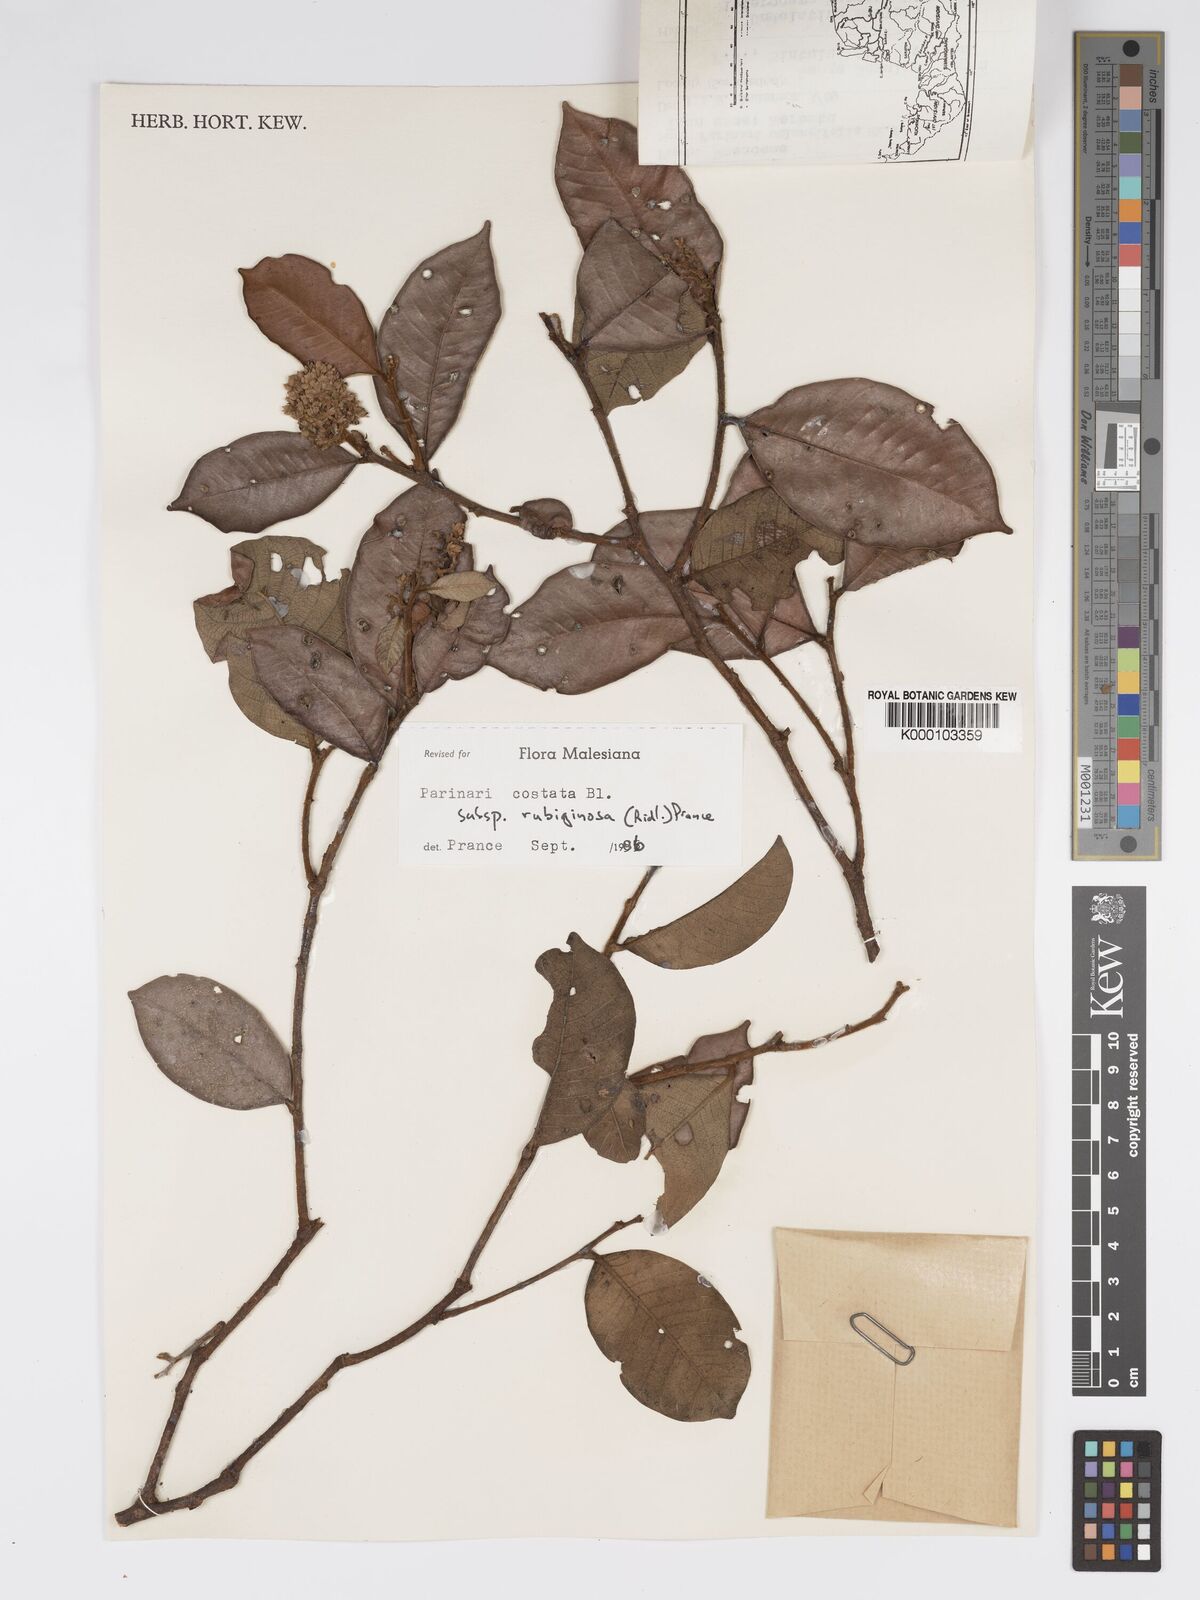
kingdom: Plantae
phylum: Tracheophyta
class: Magnoliopsida
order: Malpighiales
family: Chrysobalanaceae
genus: Parinari
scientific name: Parinari costata
